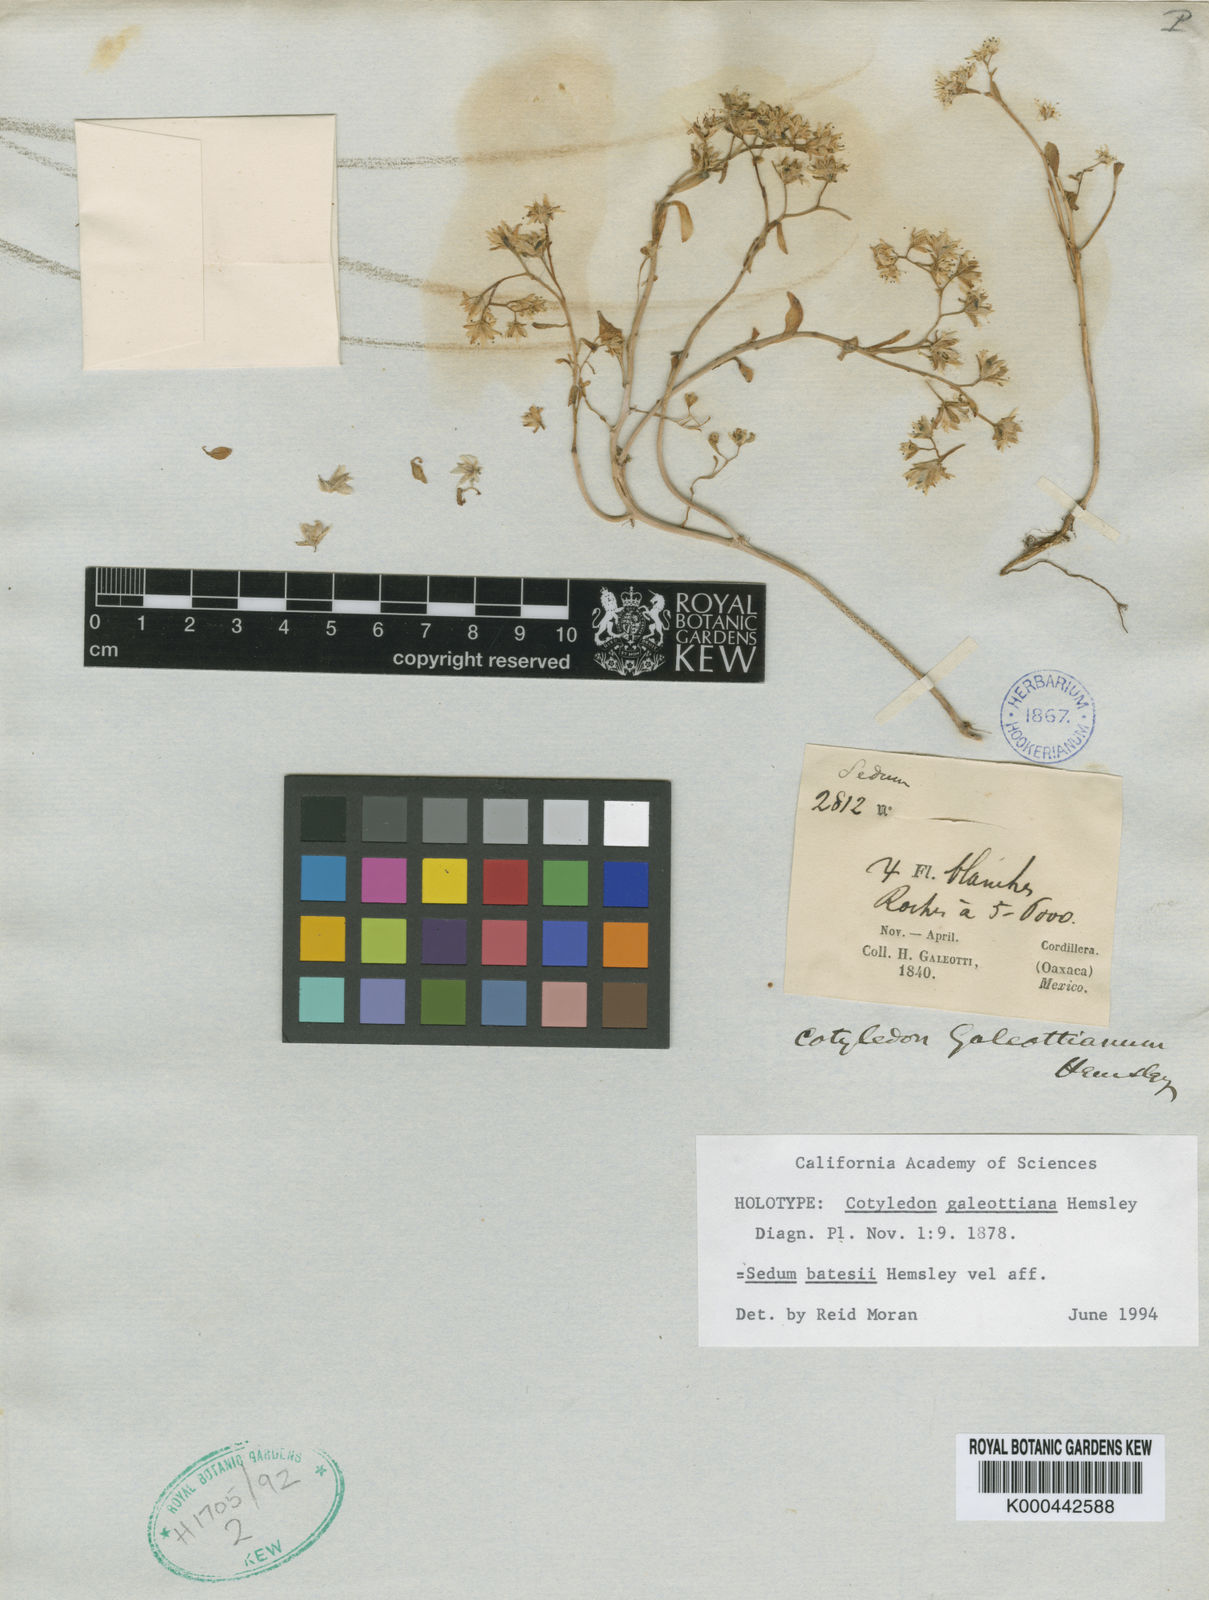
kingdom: Plantae
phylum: Tracheophyta
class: Magnoliopsida
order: Saxifragales
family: Crassulaceae
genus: Sedum
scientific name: Sedum batesii
